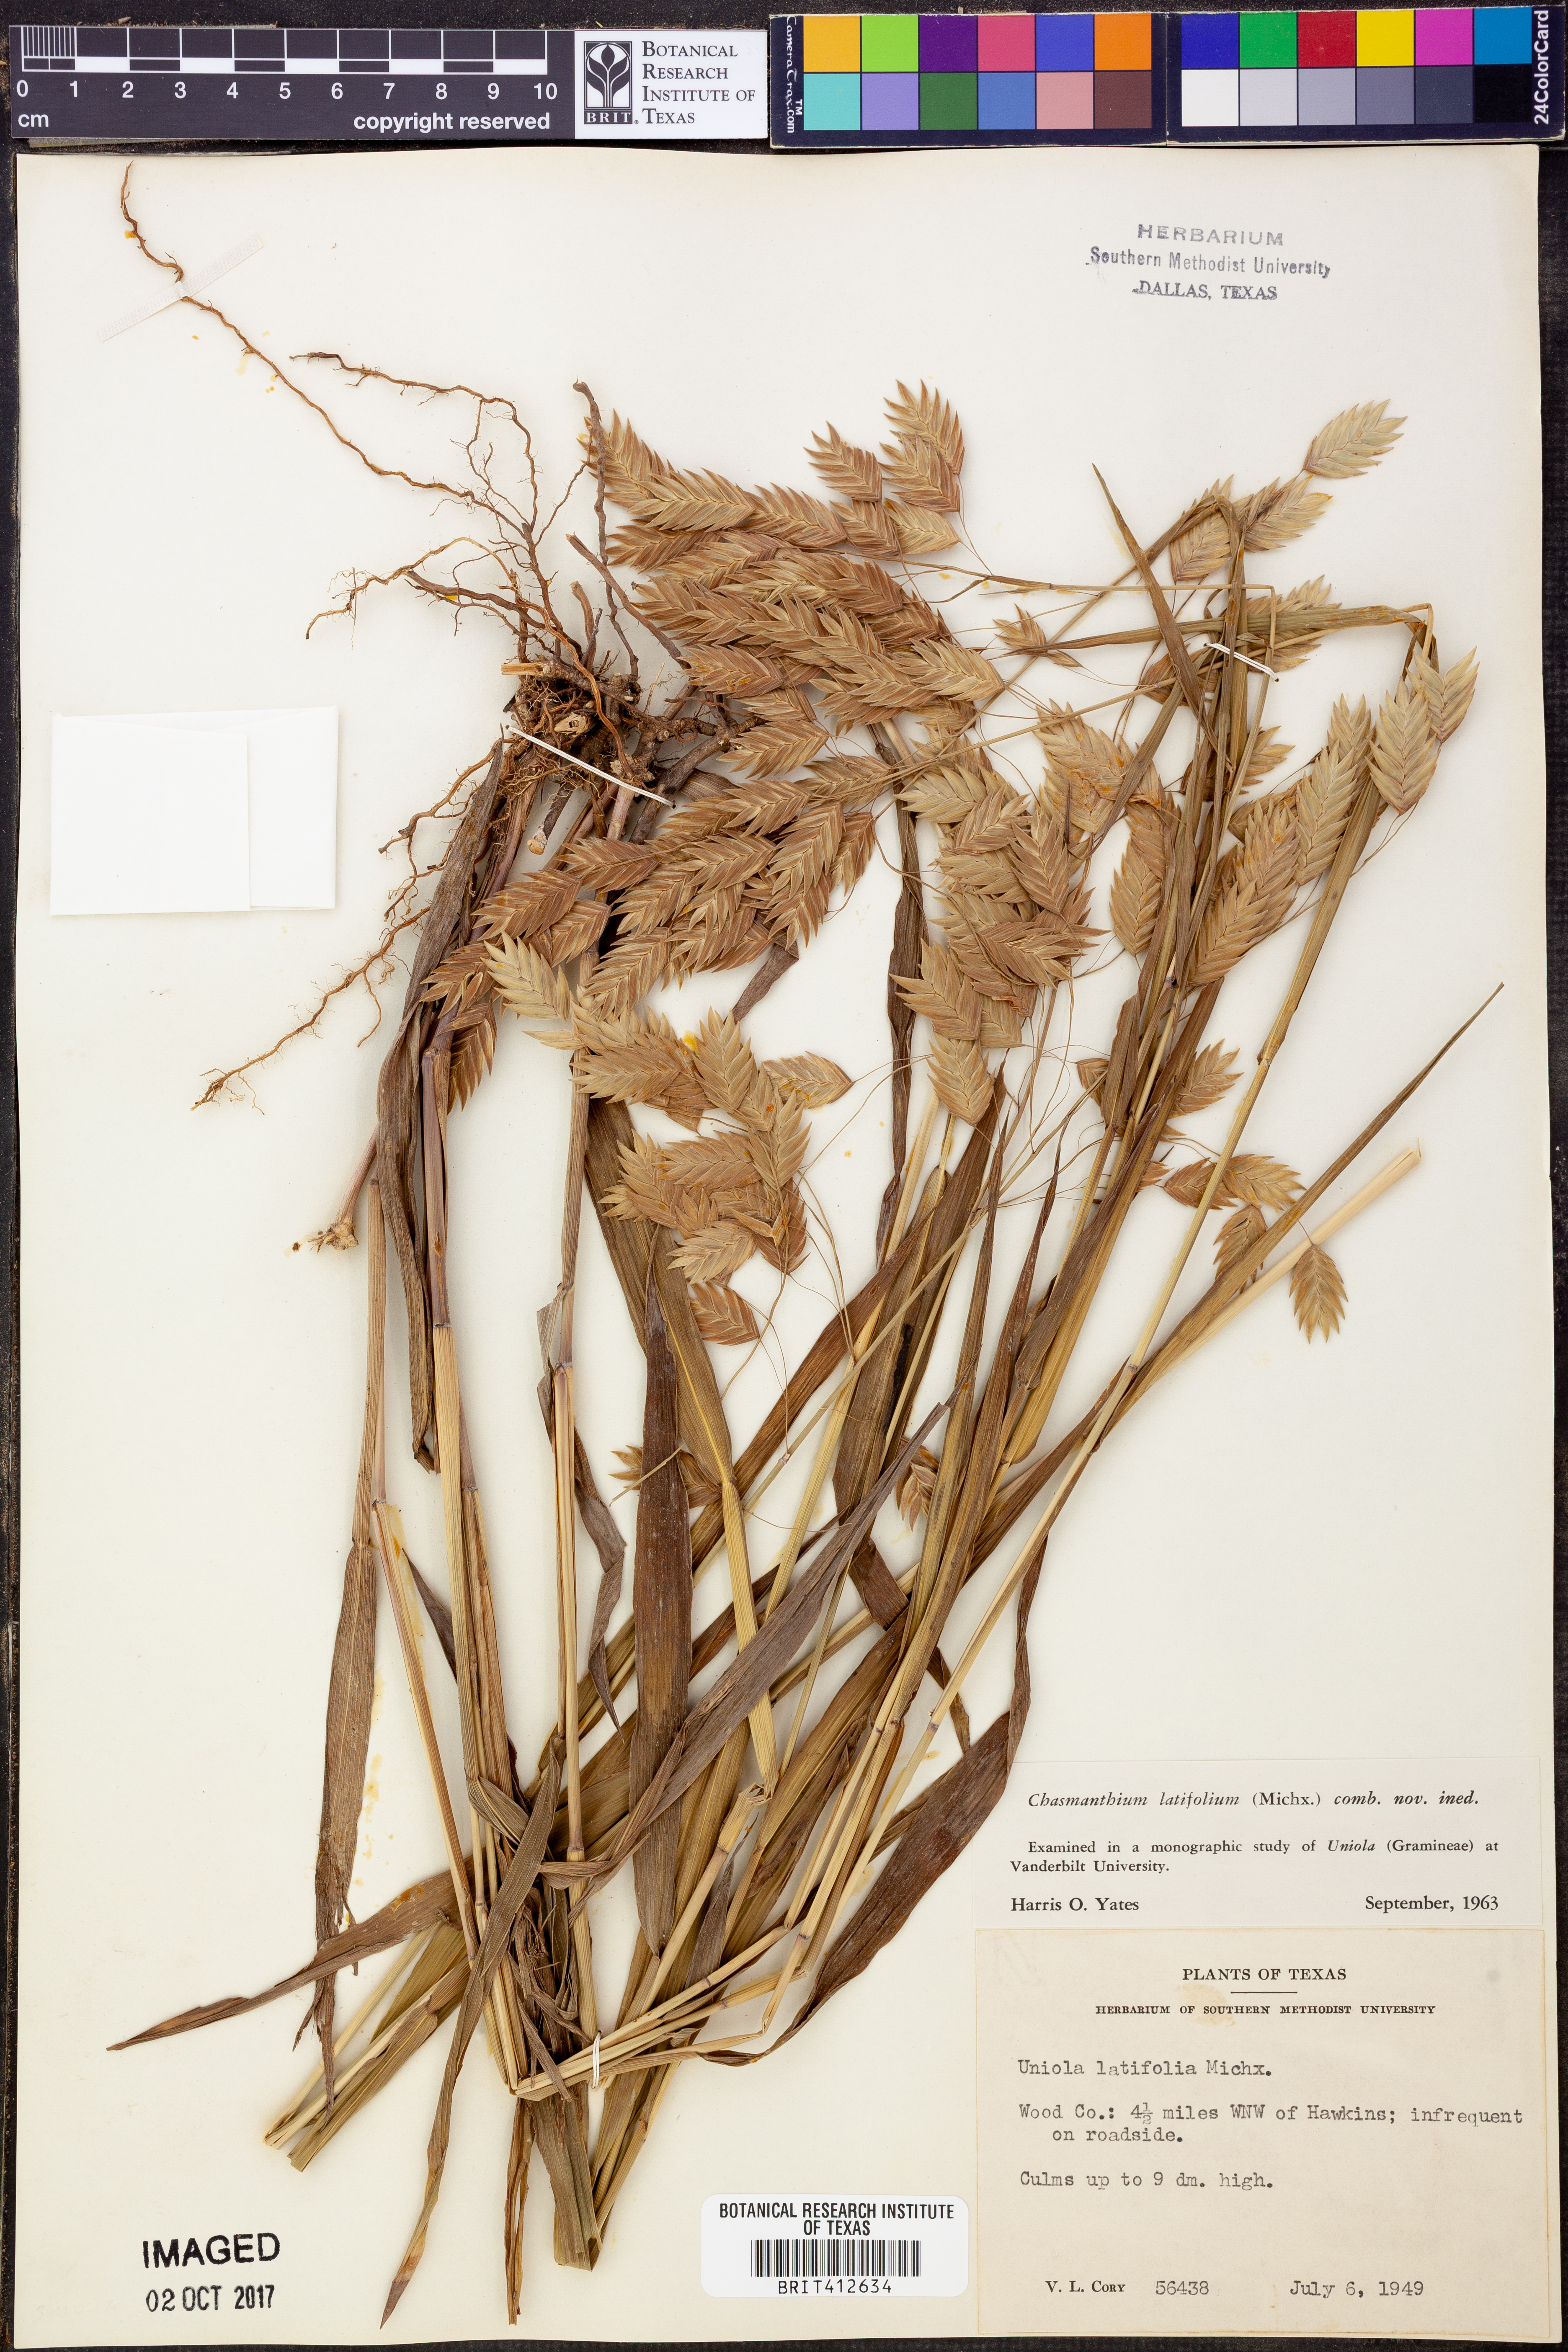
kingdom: Plantae
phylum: Tracheophyta
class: Liliopsida
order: Poales
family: Poaceae
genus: Chasmanthium
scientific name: Chasmanthium latifolium
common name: Broad-leaved chasmanthium
